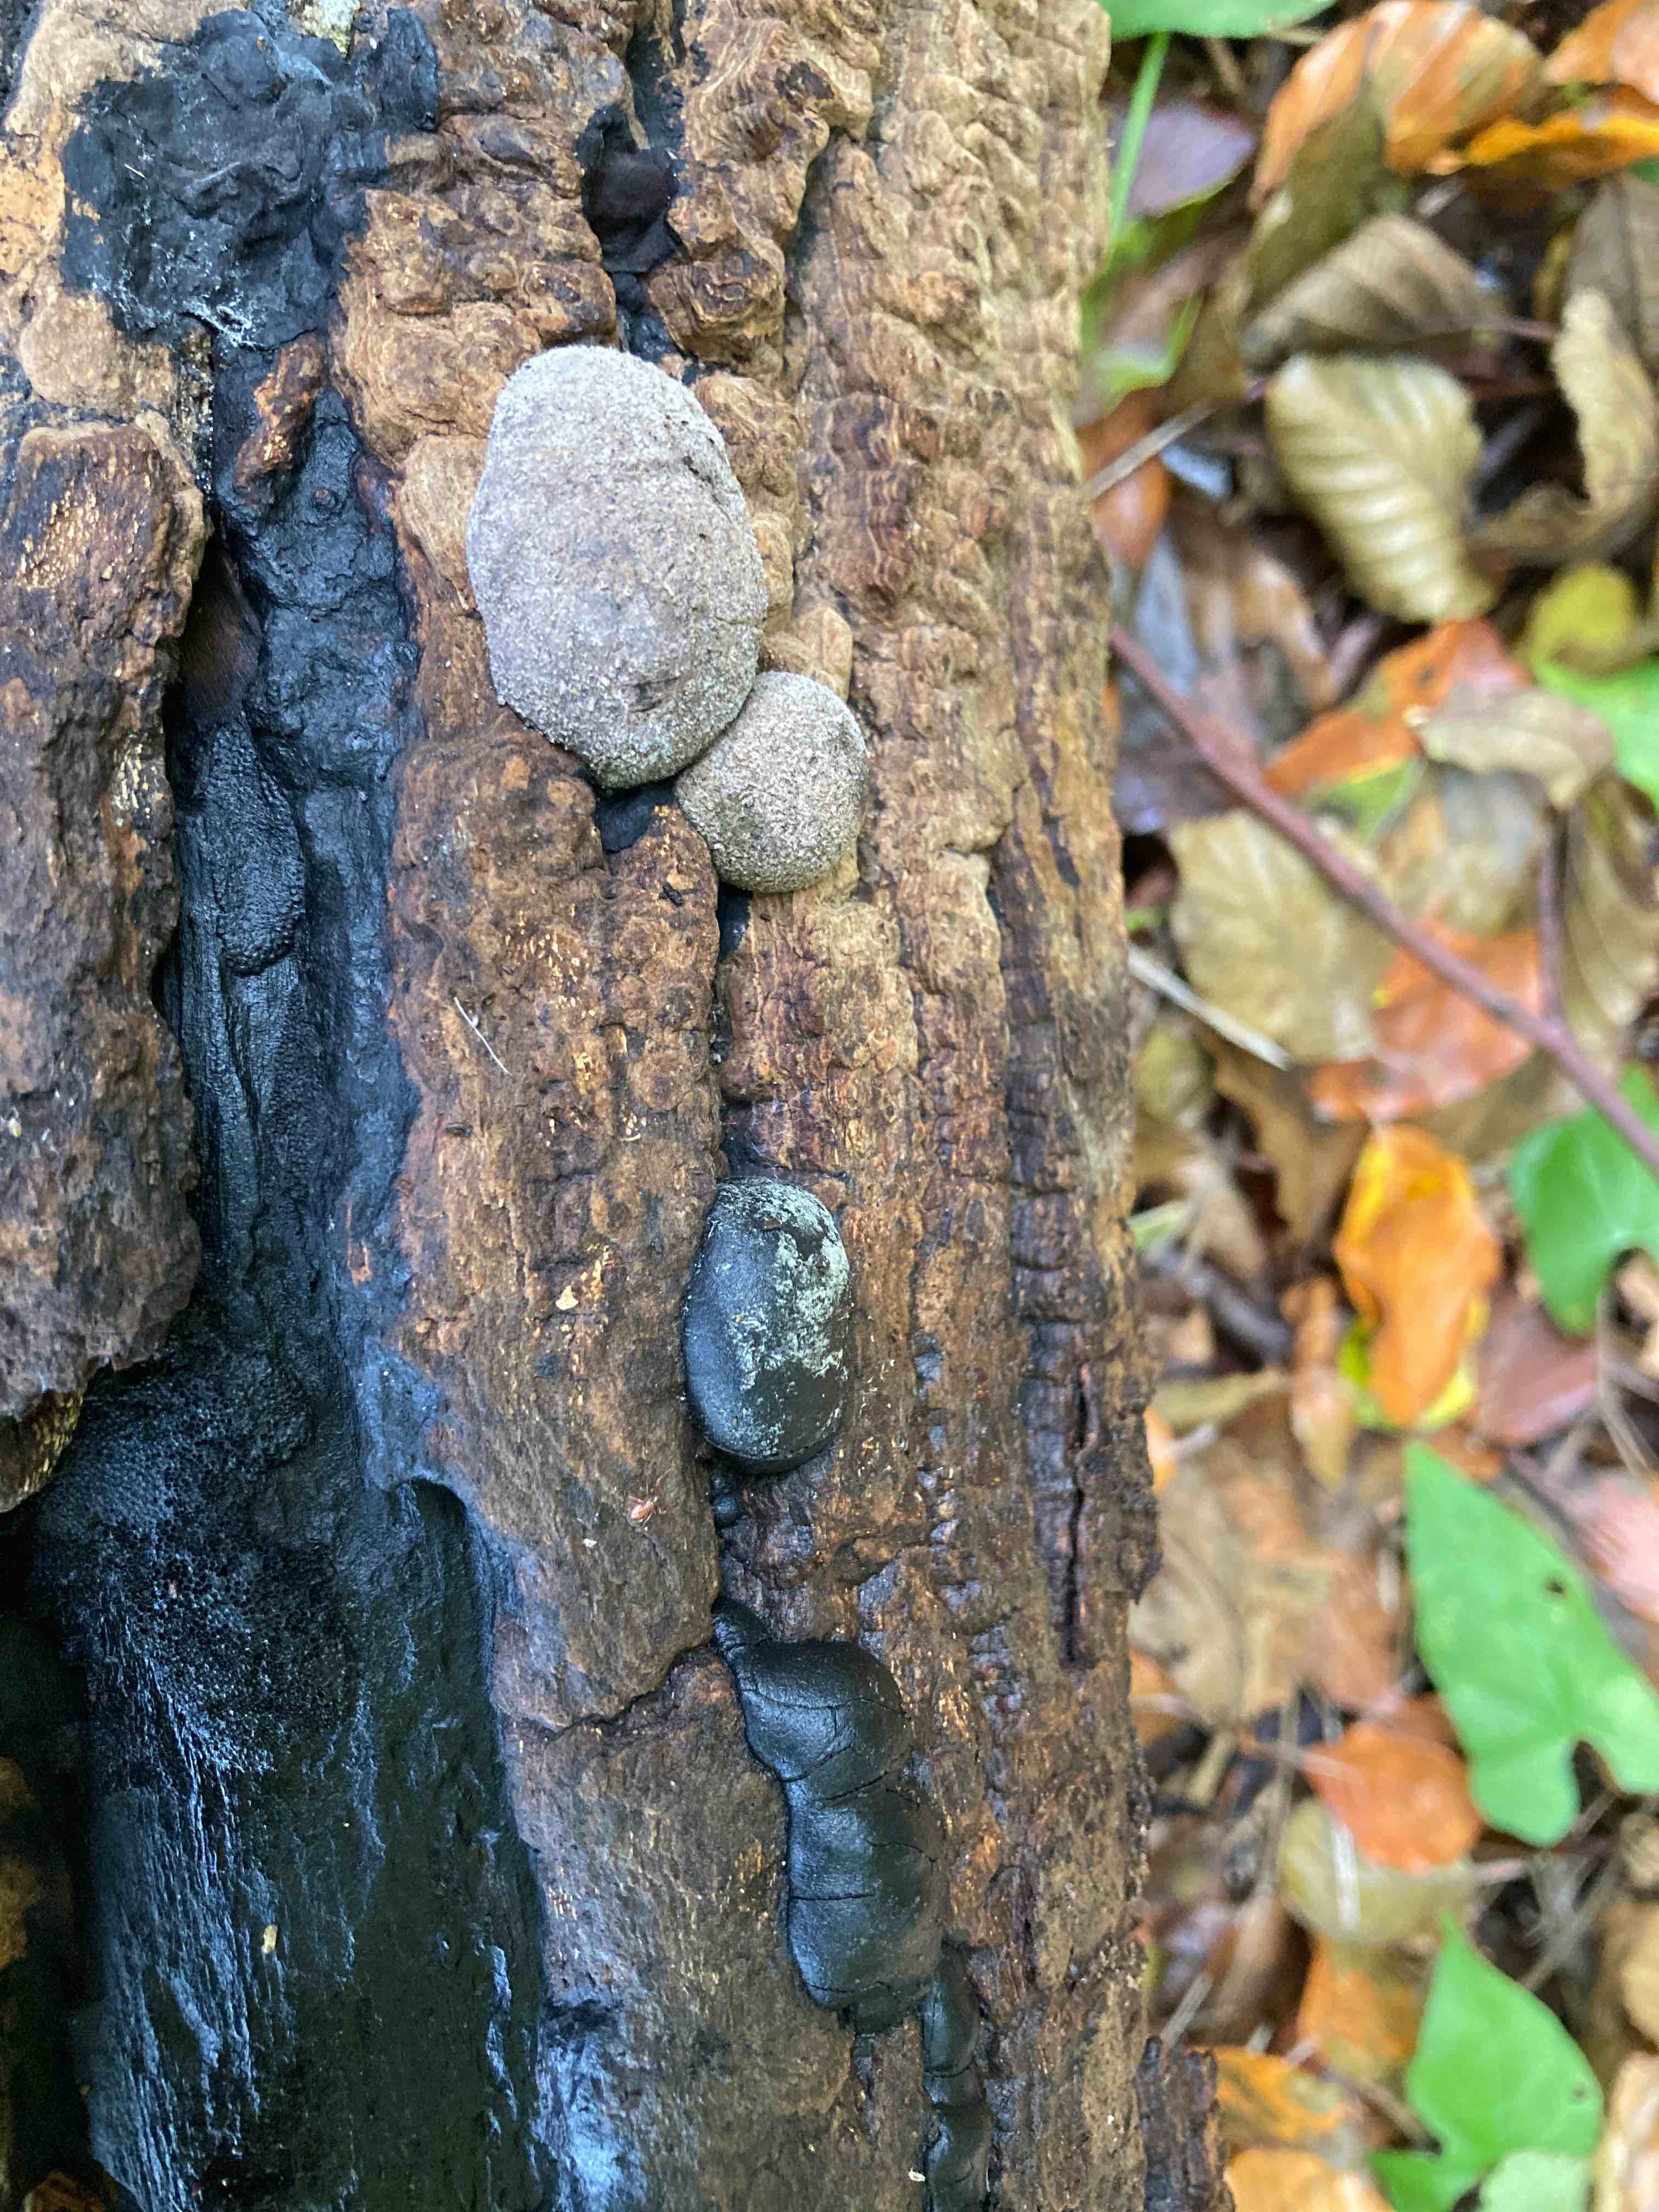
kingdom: Fungi
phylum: Ascomycota
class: Sordariomycetes
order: Xylariales
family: Hypoxylaceae
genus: Daldinia
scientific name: Daldinia concentrica
